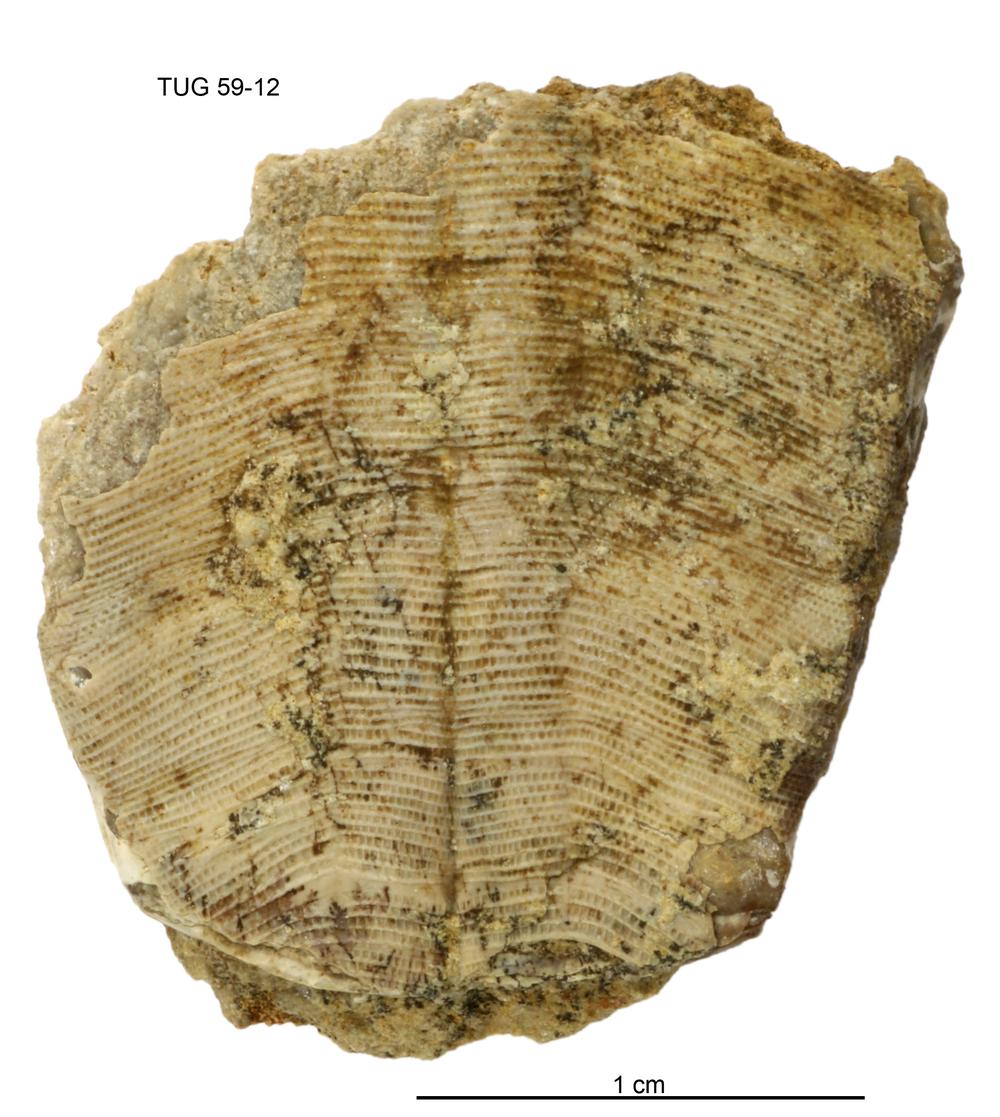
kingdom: Animalia
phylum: Cnidaria
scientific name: Cnidaria
